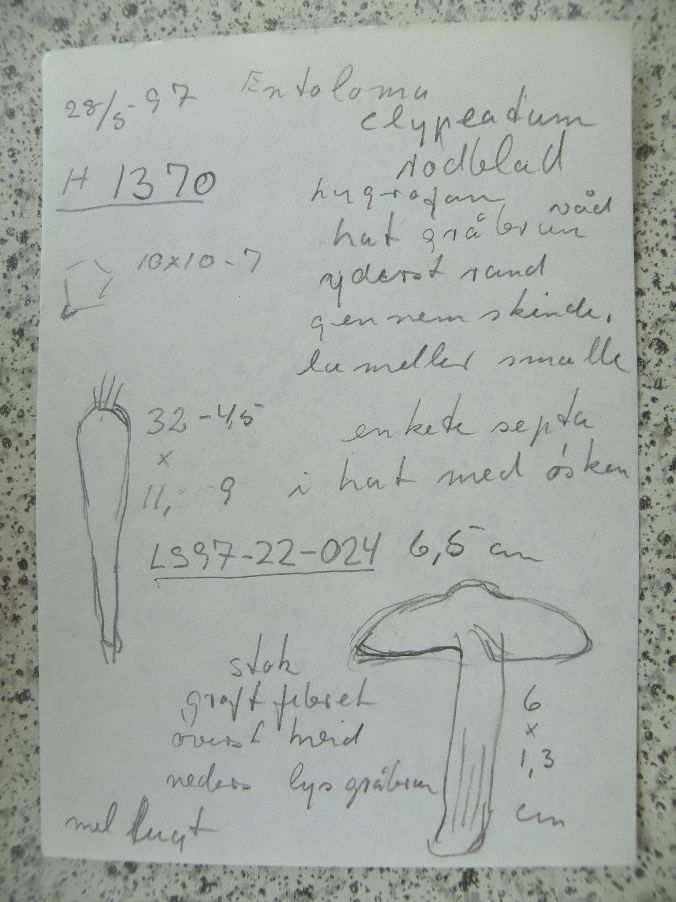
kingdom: Fungi
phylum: Basidiomycota
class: Agaricomycetes
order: Agaricales
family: Entolomataceae
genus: Entoloma
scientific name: Entoloma clypeatum
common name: flammet rødblad
